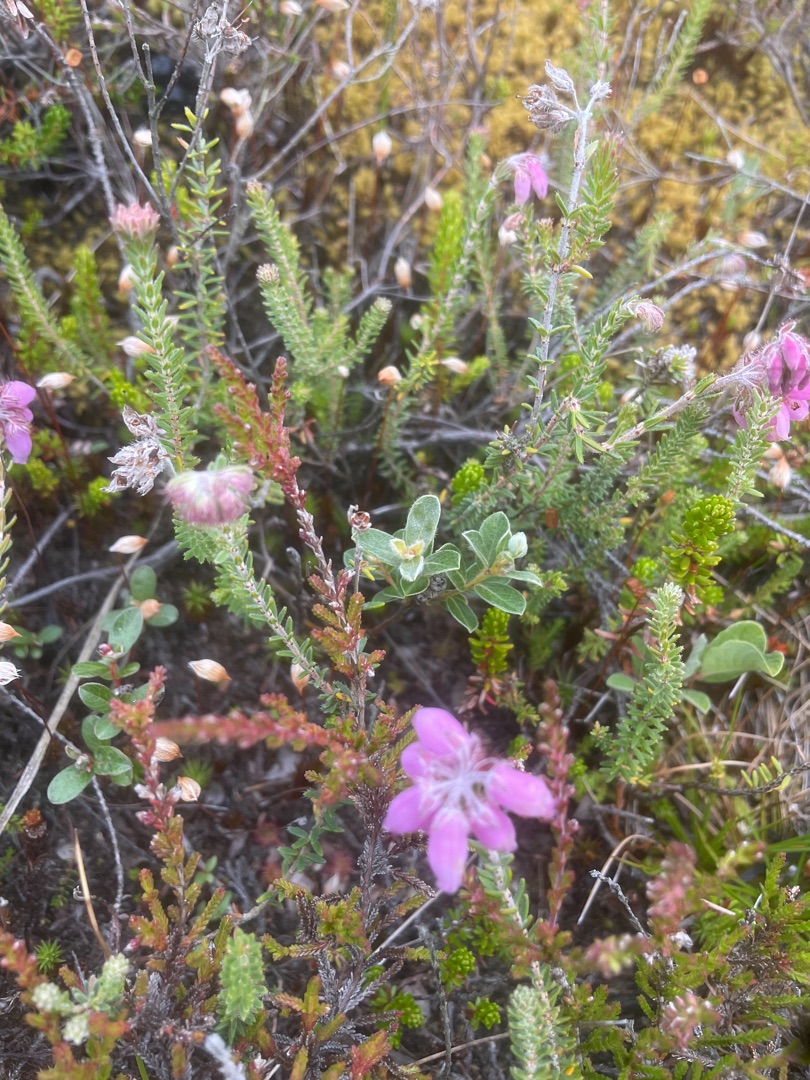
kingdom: Plantae
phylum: Tracheophyta
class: Magnoliopsida
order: Ericales
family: Ericaceae
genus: Erica
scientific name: Erica tetralix
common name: Klokkelyng
